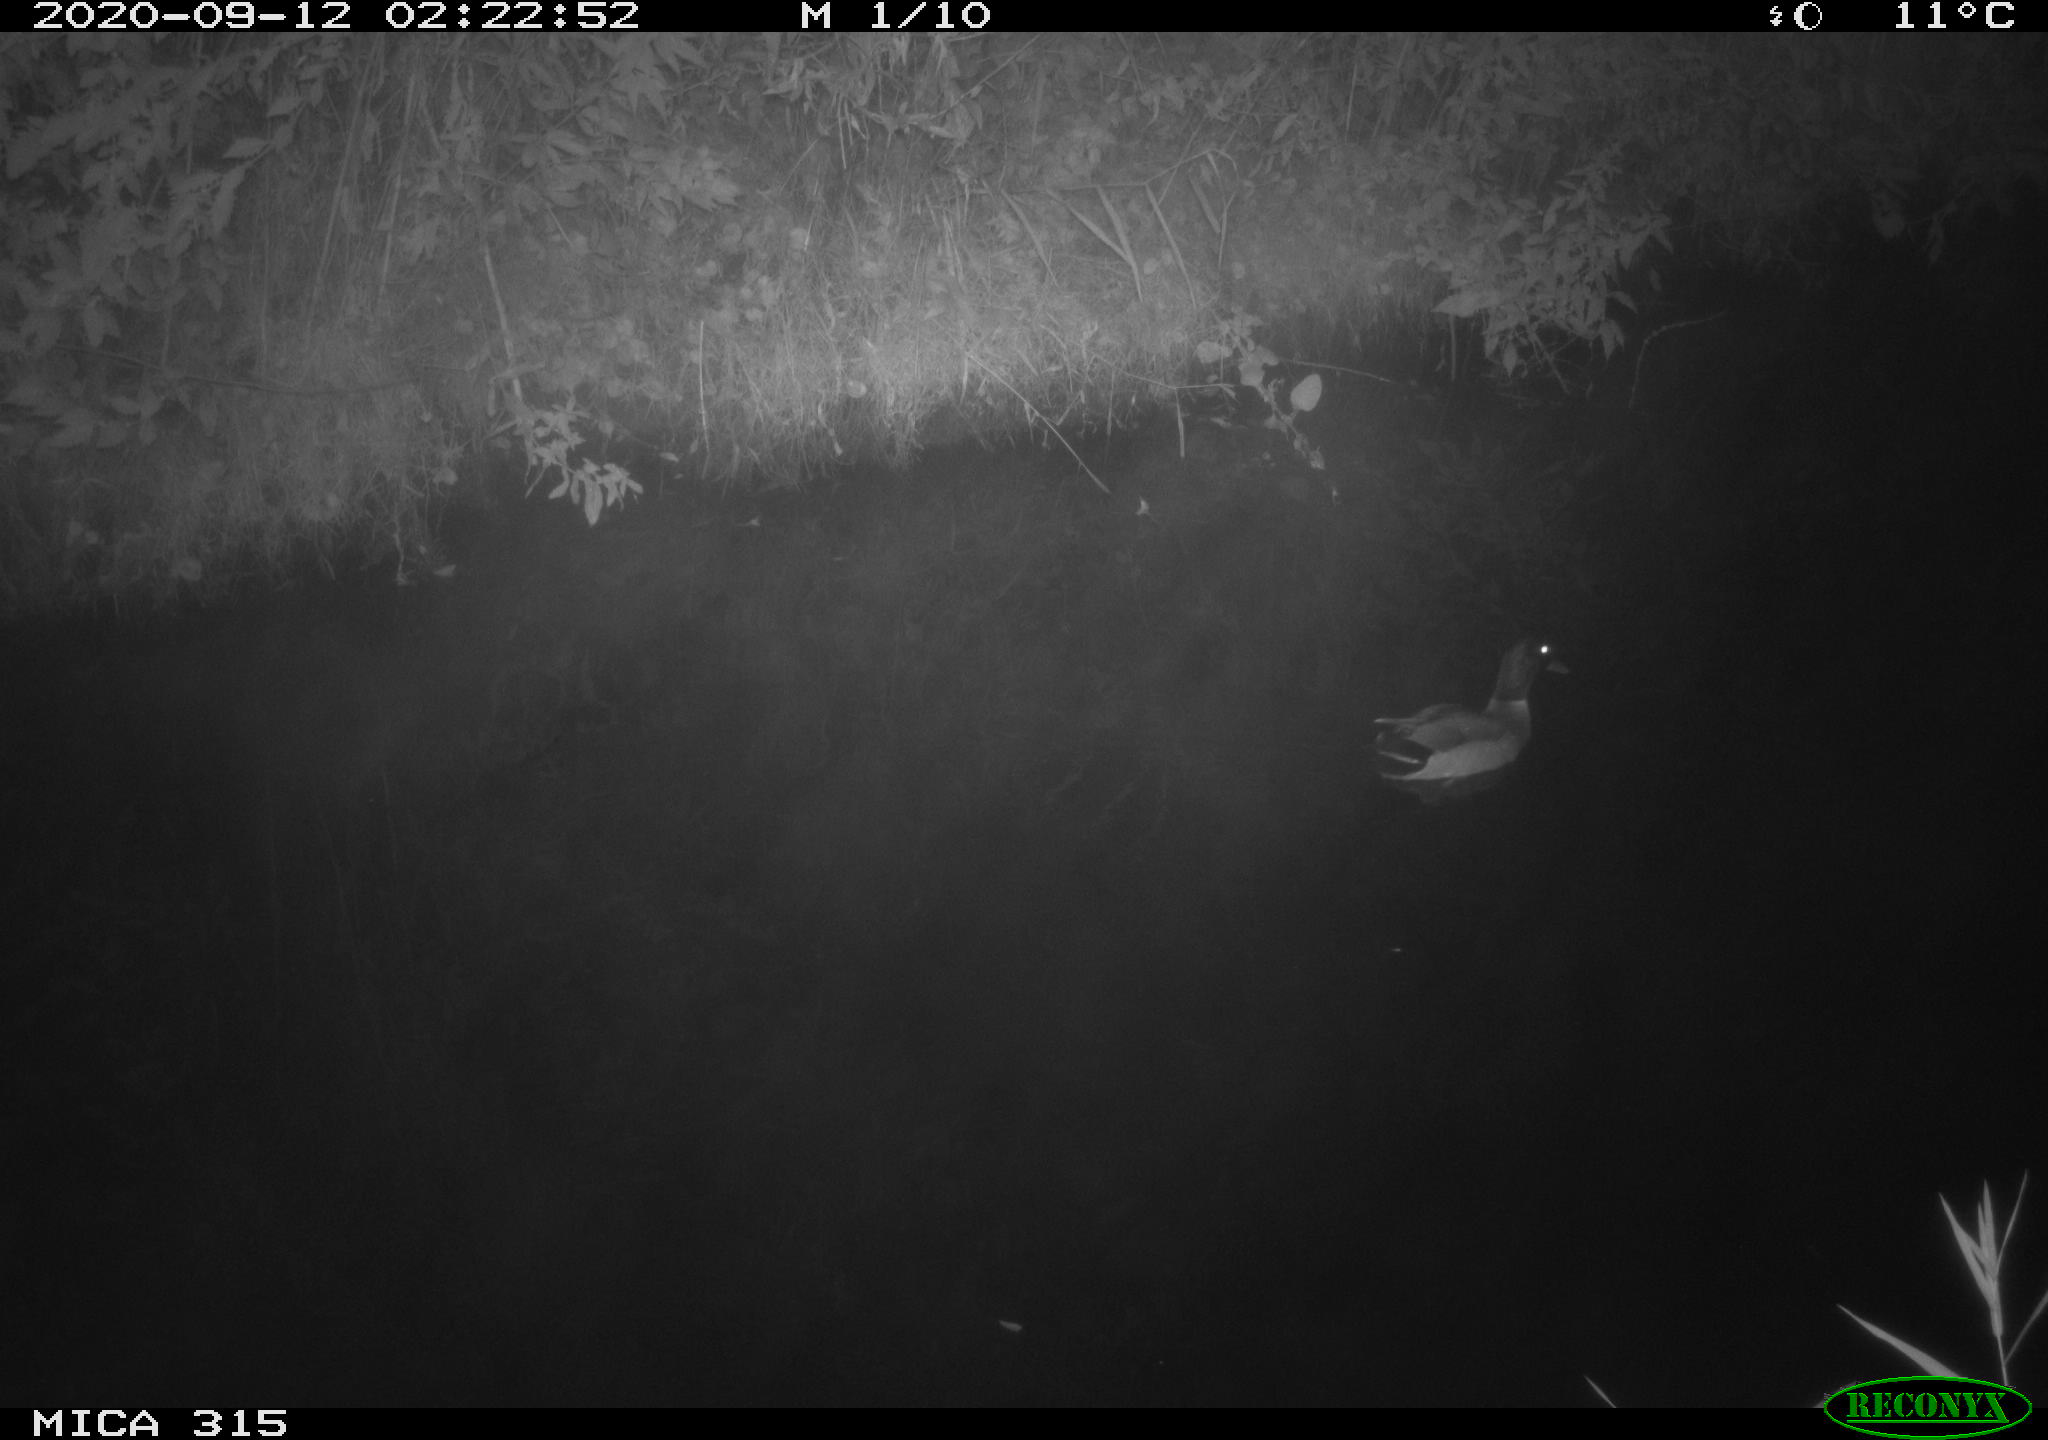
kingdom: Animalia
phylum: Chordata
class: Aves
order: Anseriformes
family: Anatidae
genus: Anas
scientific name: Anas platyrhynchos
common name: Mallard
